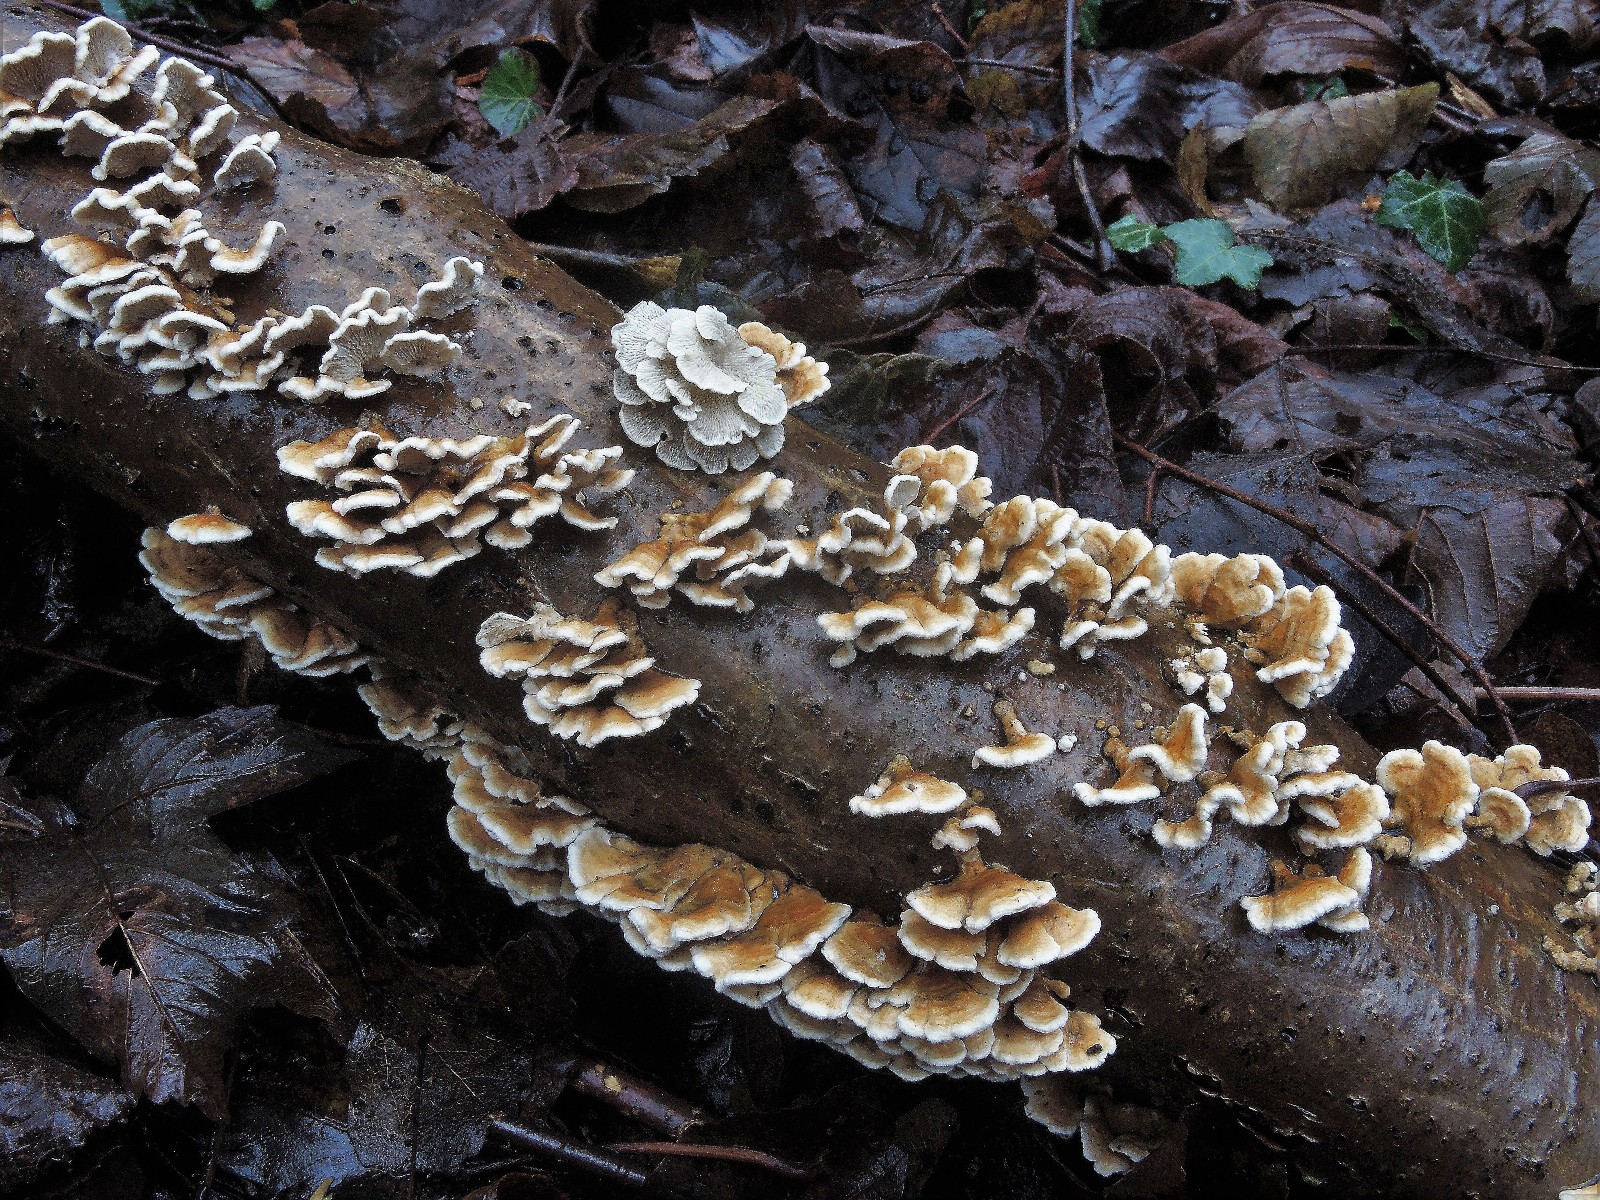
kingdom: Fungi
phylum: Basidiomycota
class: Agaricomycetes
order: Amylocorticiales
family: Amylocorticiaceae
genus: Plicaturopsis
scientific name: Plicaturopsis crispa
